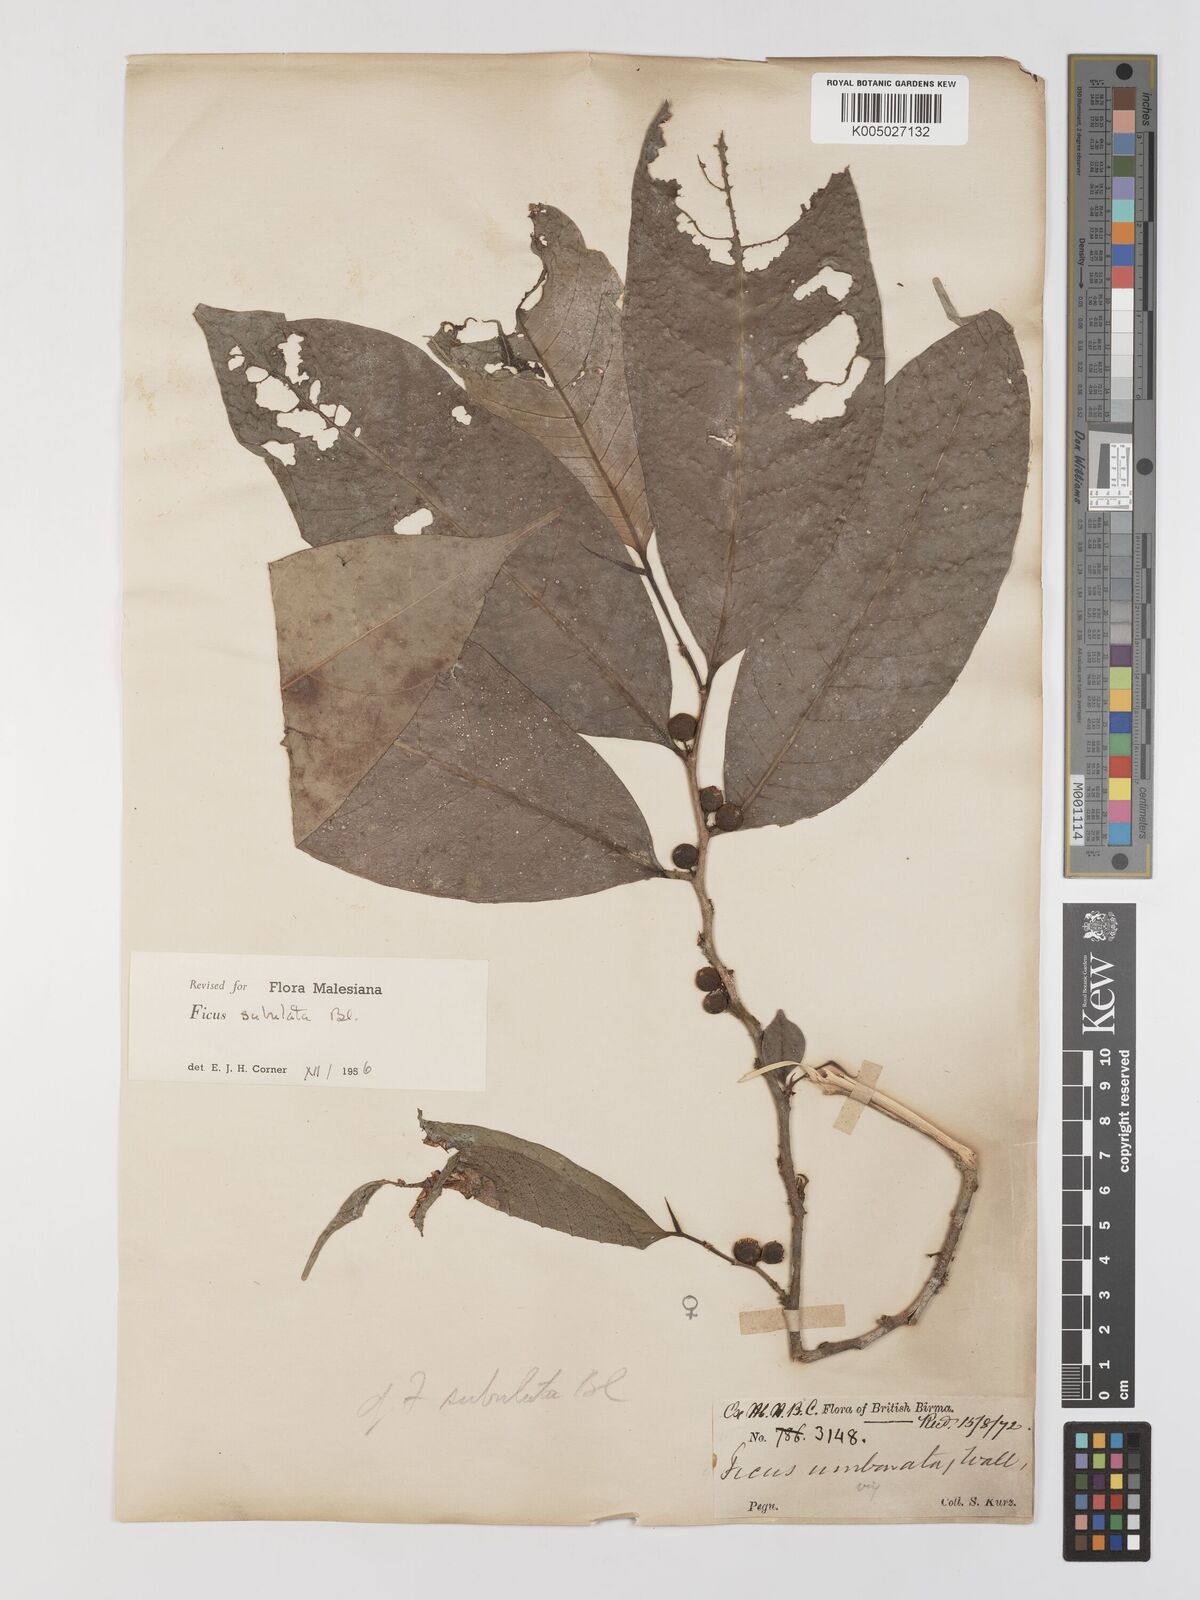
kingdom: Plantae
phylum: Tracheophyta
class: Magnoliopsida
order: Rosales
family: Moraceae
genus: Ficus
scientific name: Ficus subulata
